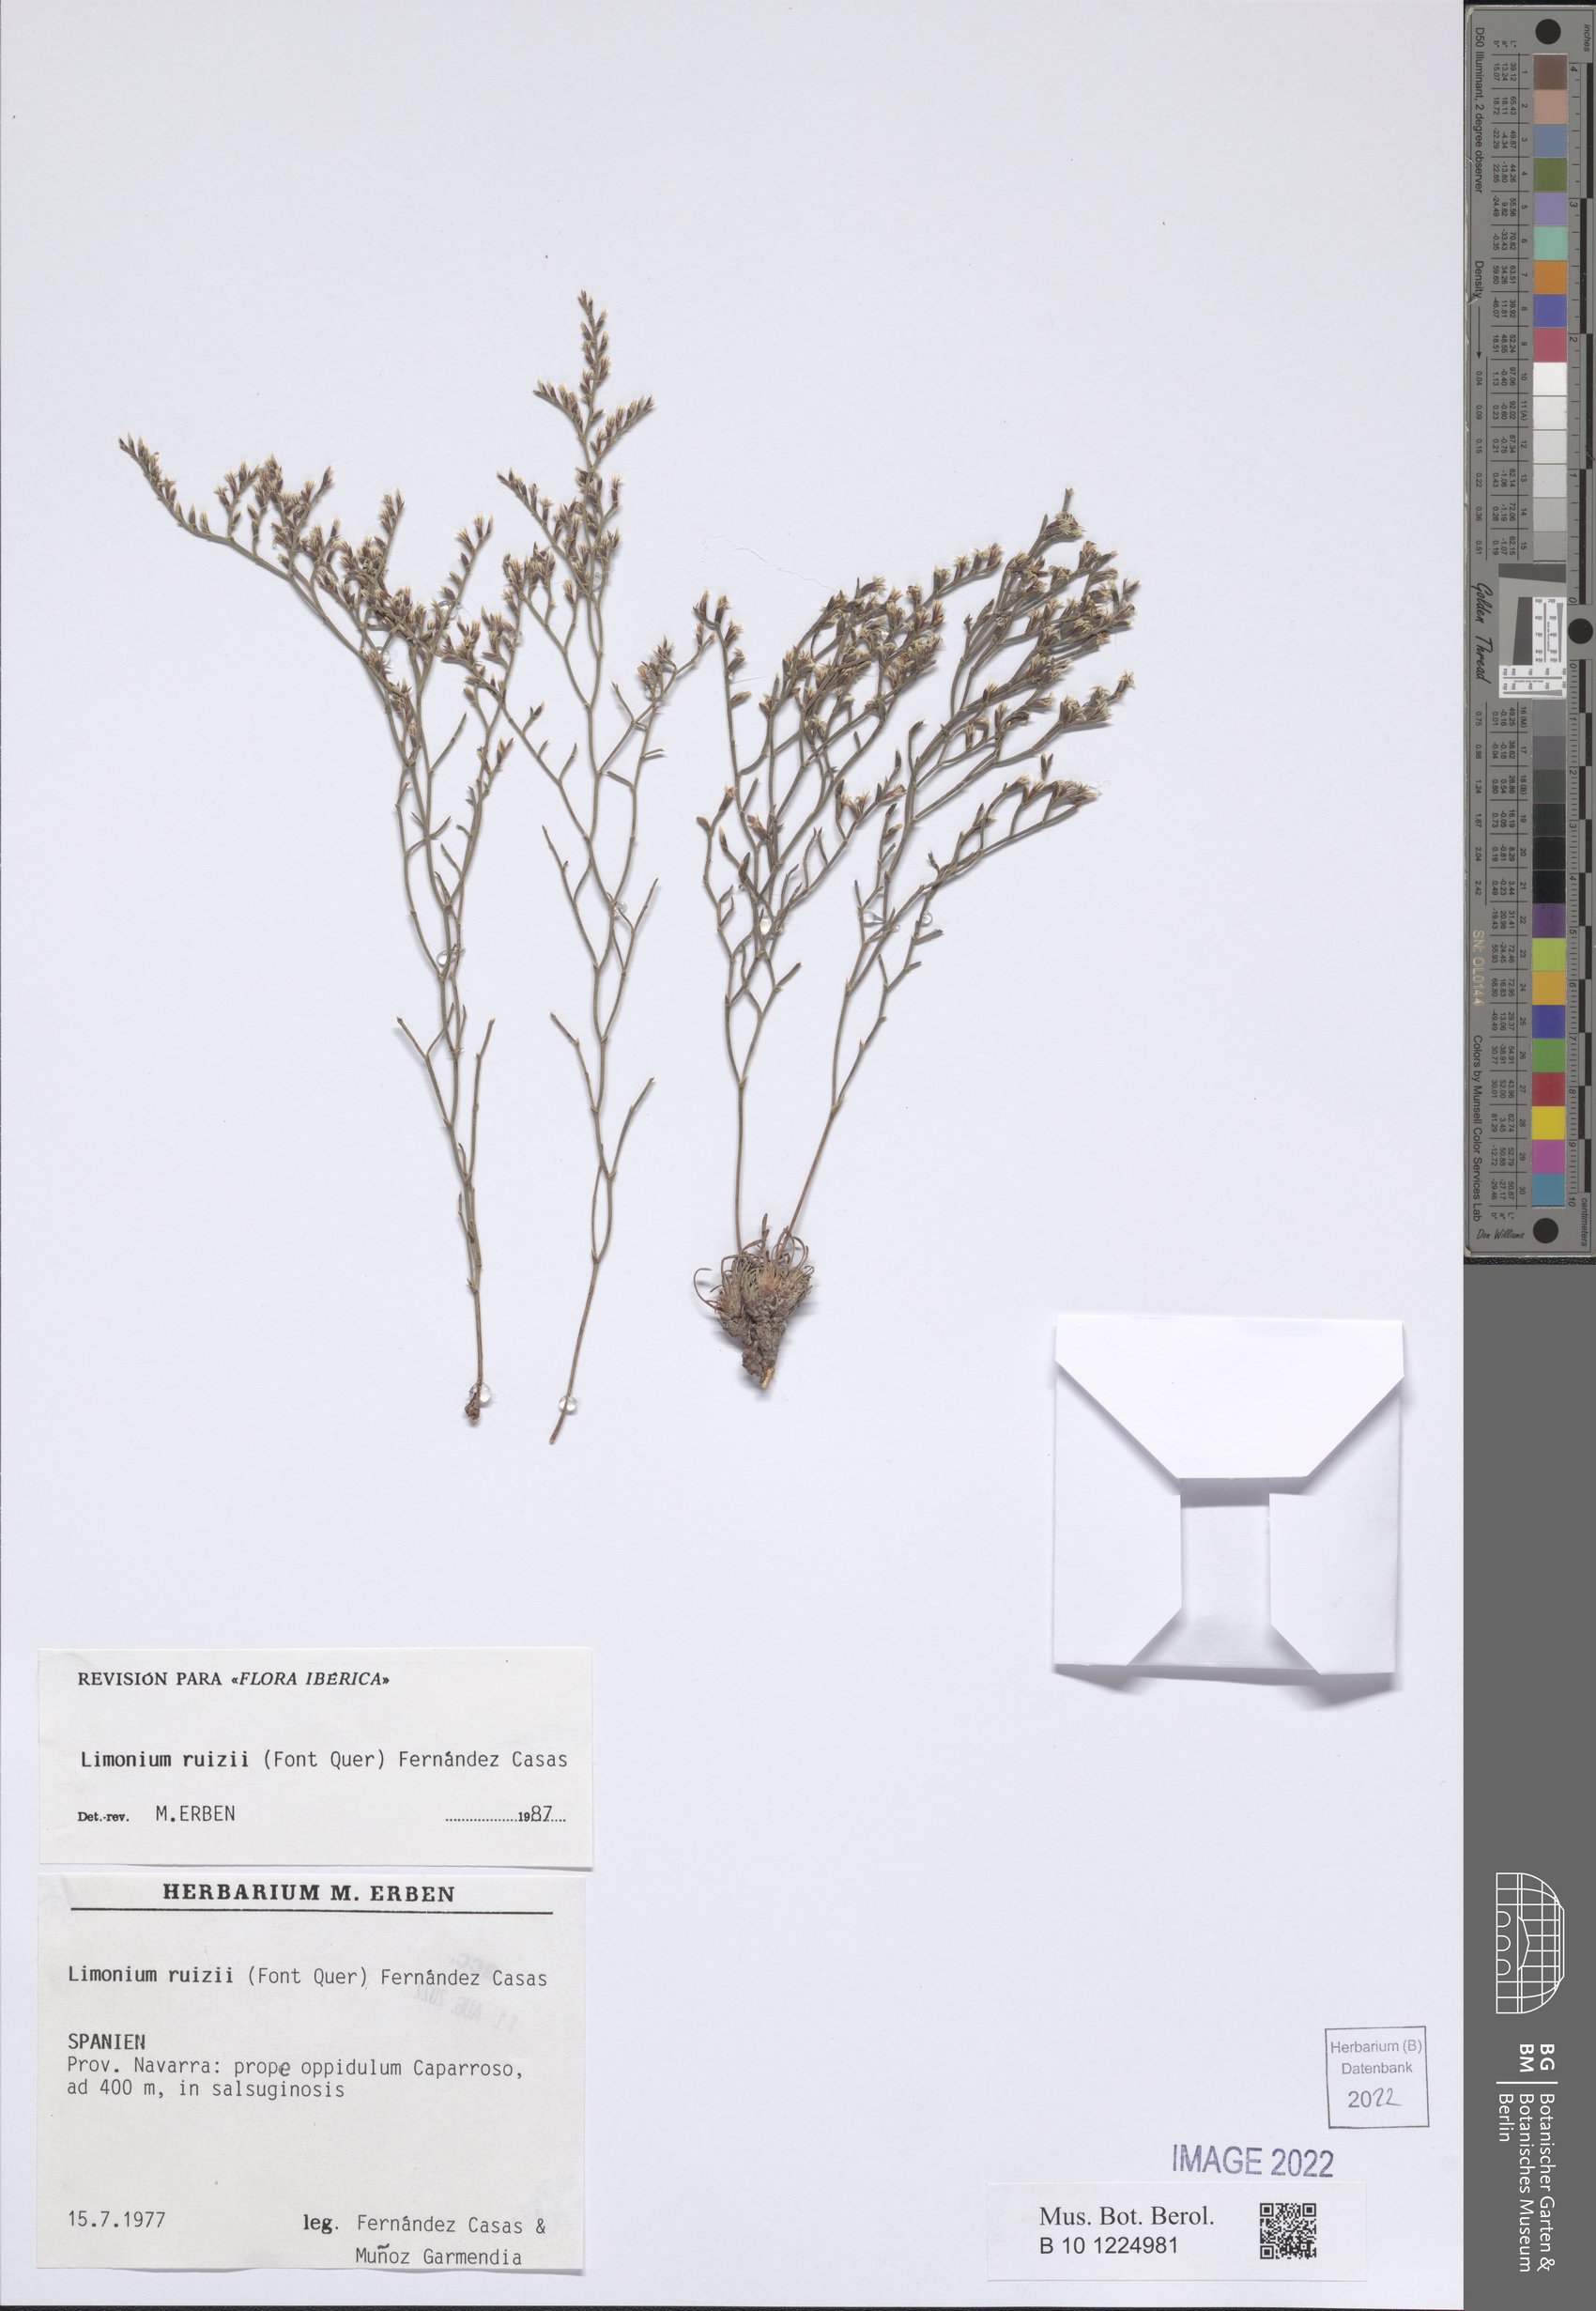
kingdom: Plantae
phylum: Tracheophyta
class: Magnoliopsida
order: Caryophyllales
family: Plumbaginaceae
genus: Limonium
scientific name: Limonium ruizii
